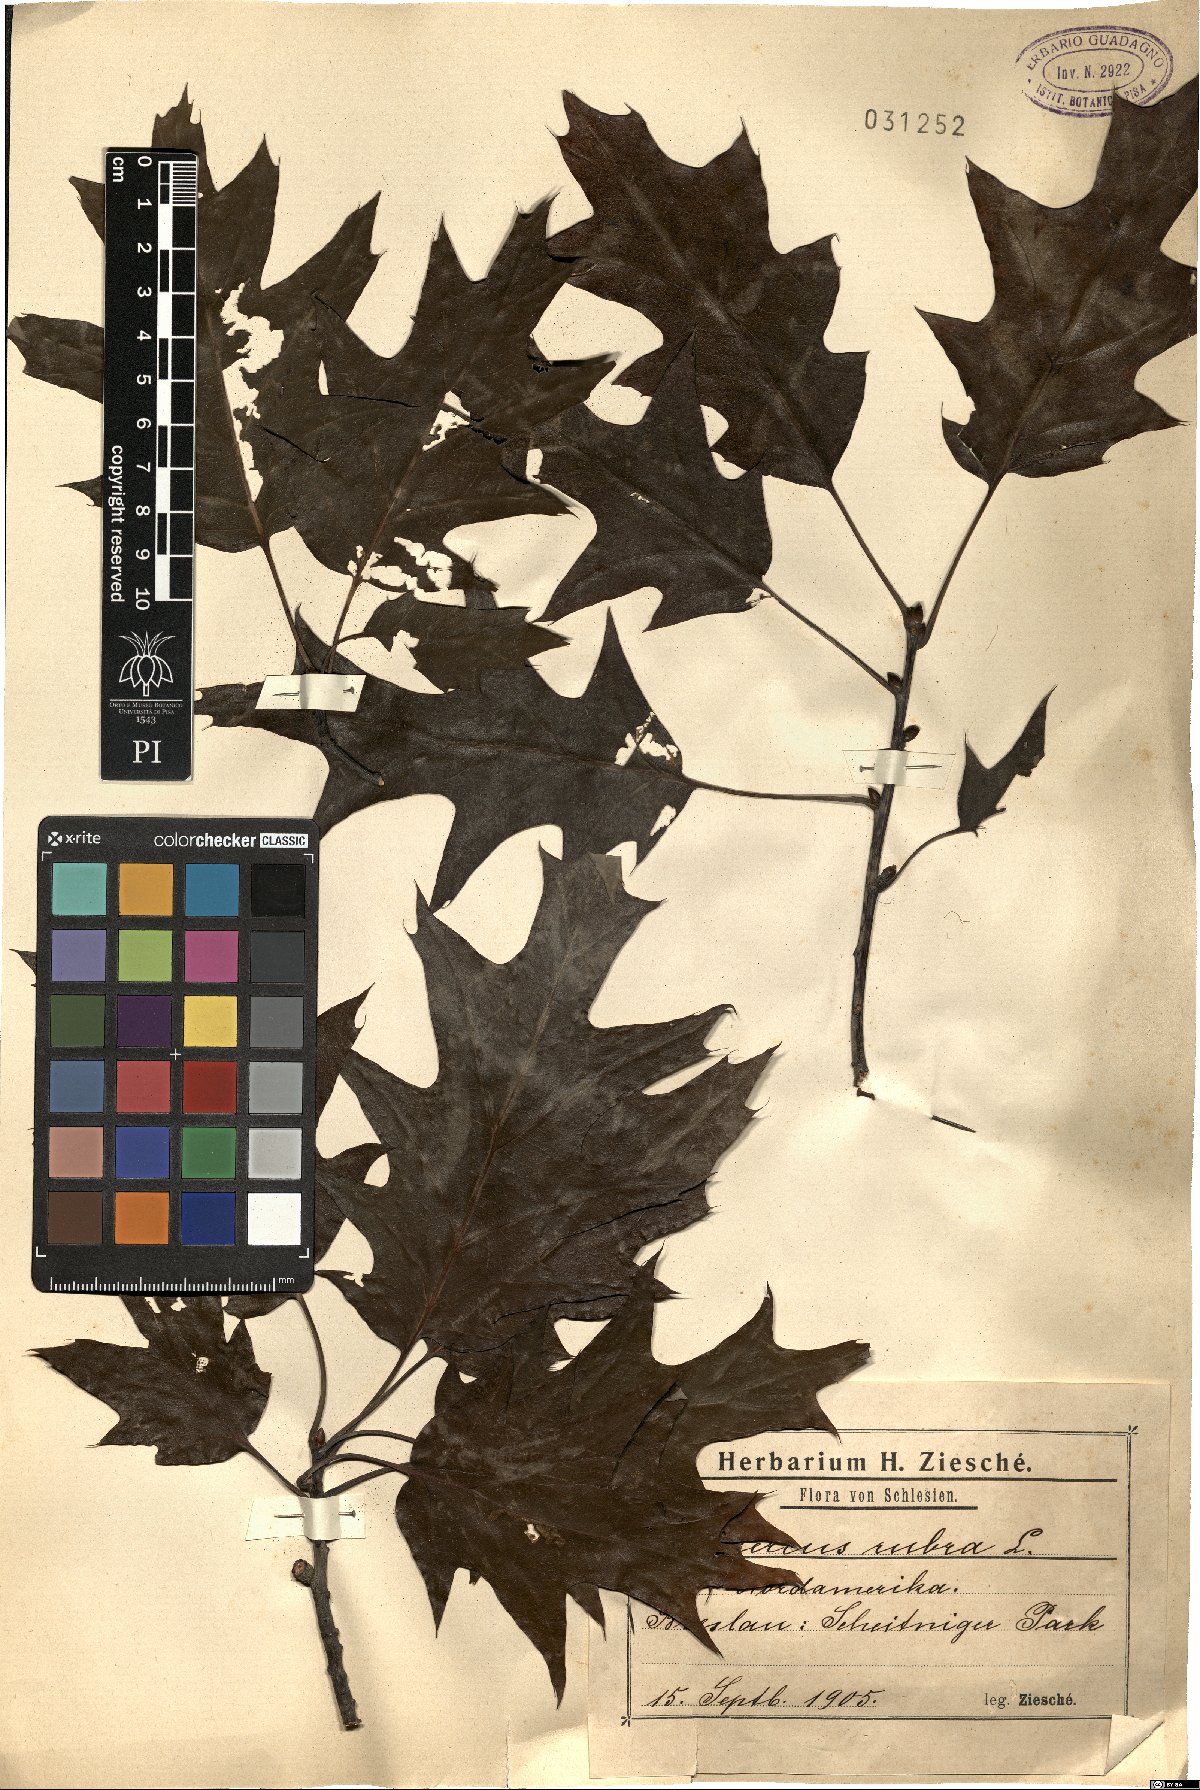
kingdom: Plantae
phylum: Tracheophyta
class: Magnoliopsida
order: Fagales
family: Fagaceae
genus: Quercus
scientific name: Quercus rubra
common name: Red oak
